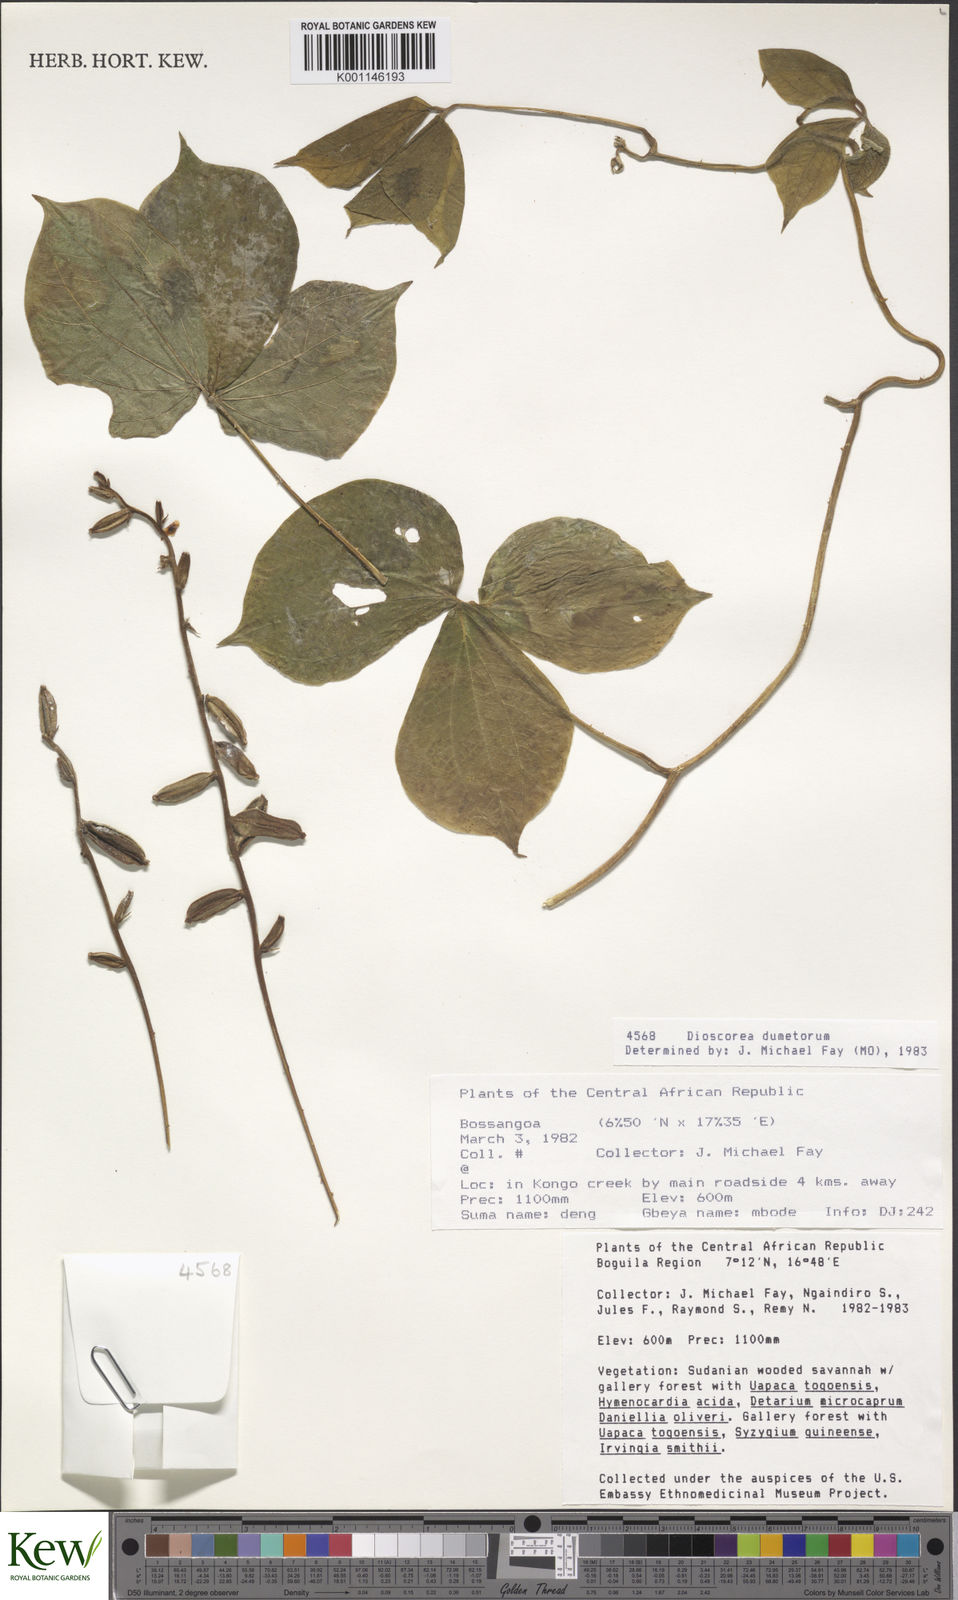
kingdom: Plantae
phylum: Tracheophyta
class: Liliopsida
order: Dioscoreales
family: Dioscoreaceae
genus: Dioscorea
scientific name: Dioscorea dumetorum
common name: African bitter yam
